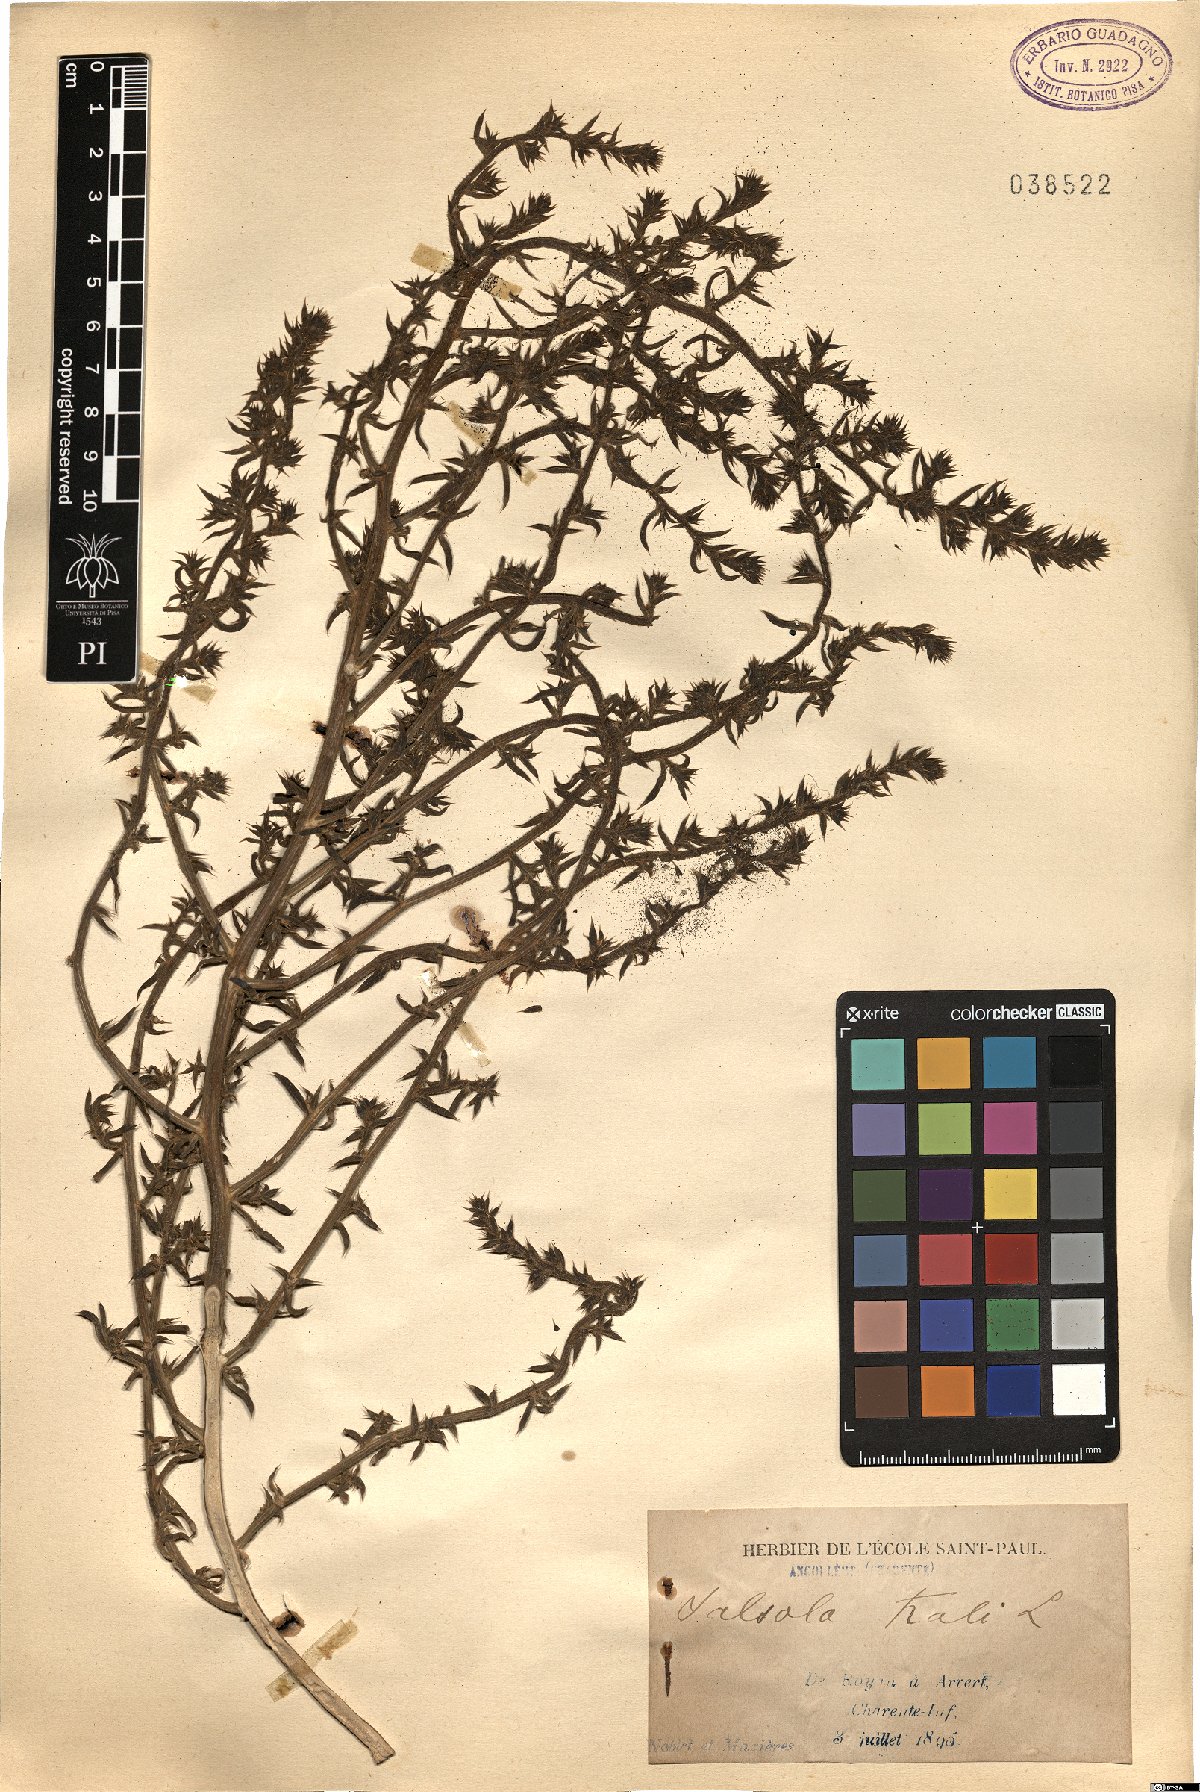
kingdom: Plantae
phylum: Tracheophyta
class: Magnoliopsida
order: Caryophyllales
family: Amaranthaceae
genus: Salsola
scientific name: Salsola kali
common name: Saltwort
